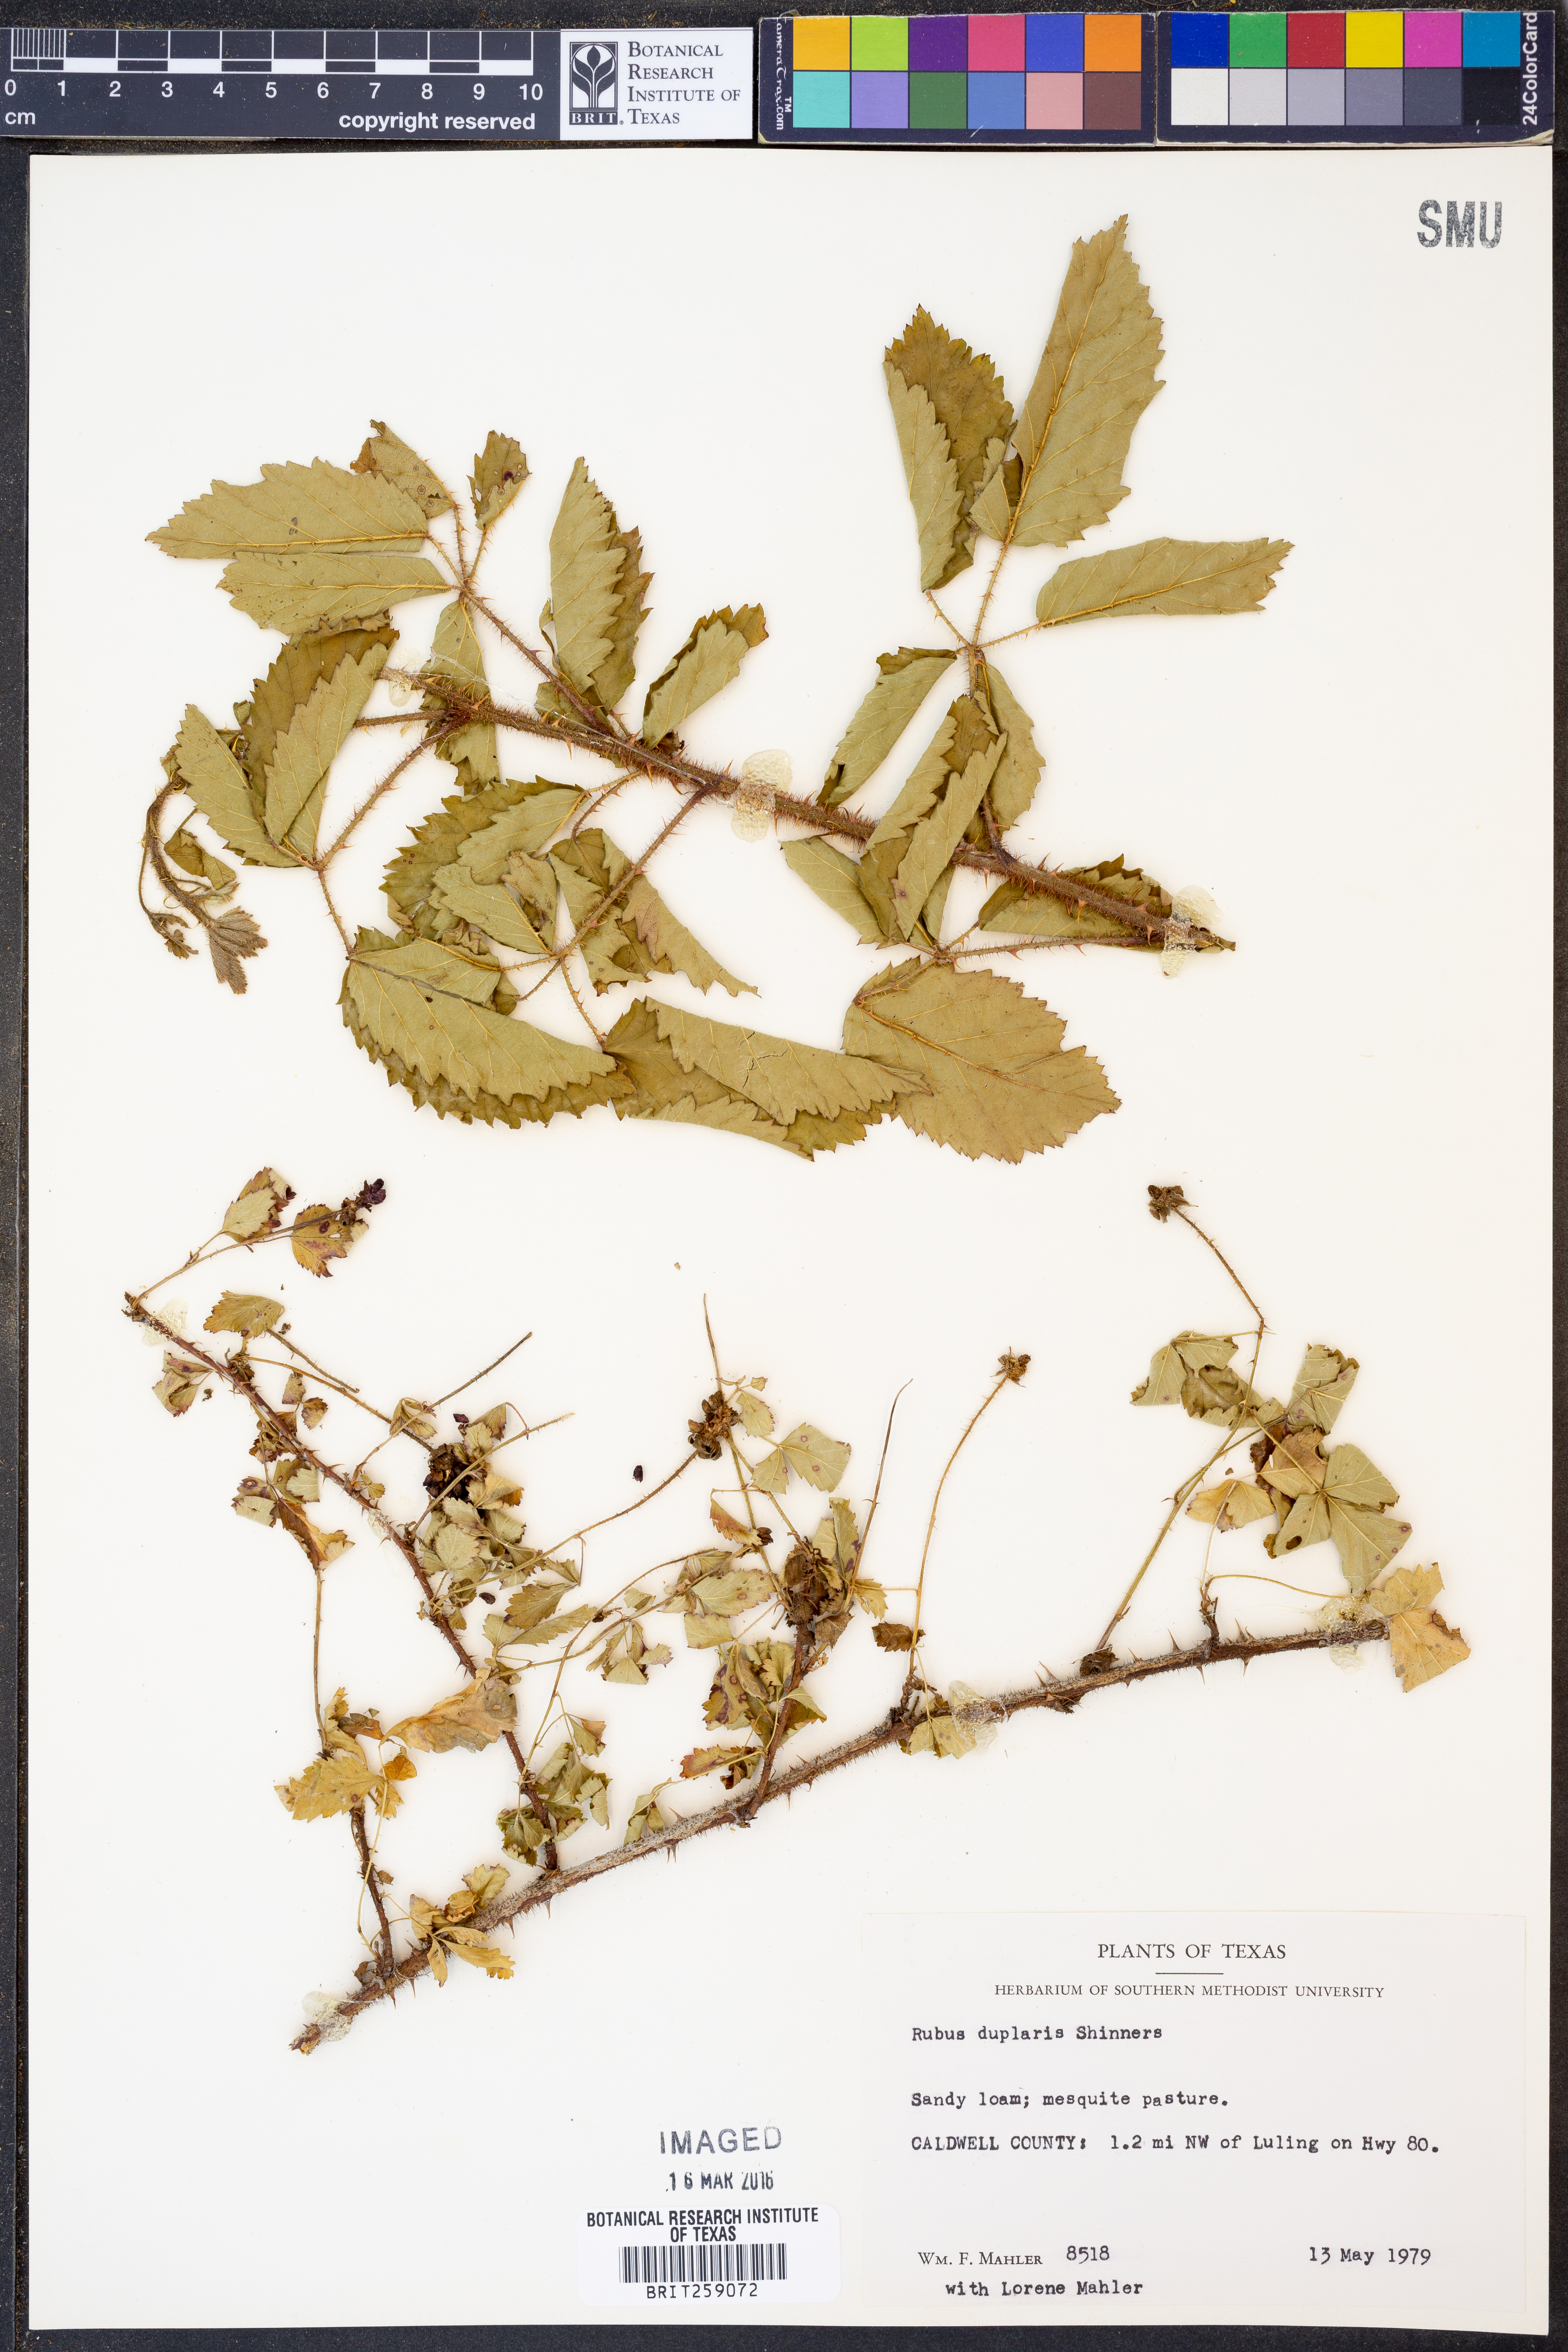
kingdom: Plantae
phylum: Tracheophyta
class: Magnoliopsida
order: Rosales
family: Rosaceae
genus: Rubus
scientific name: Rubus riograndis
